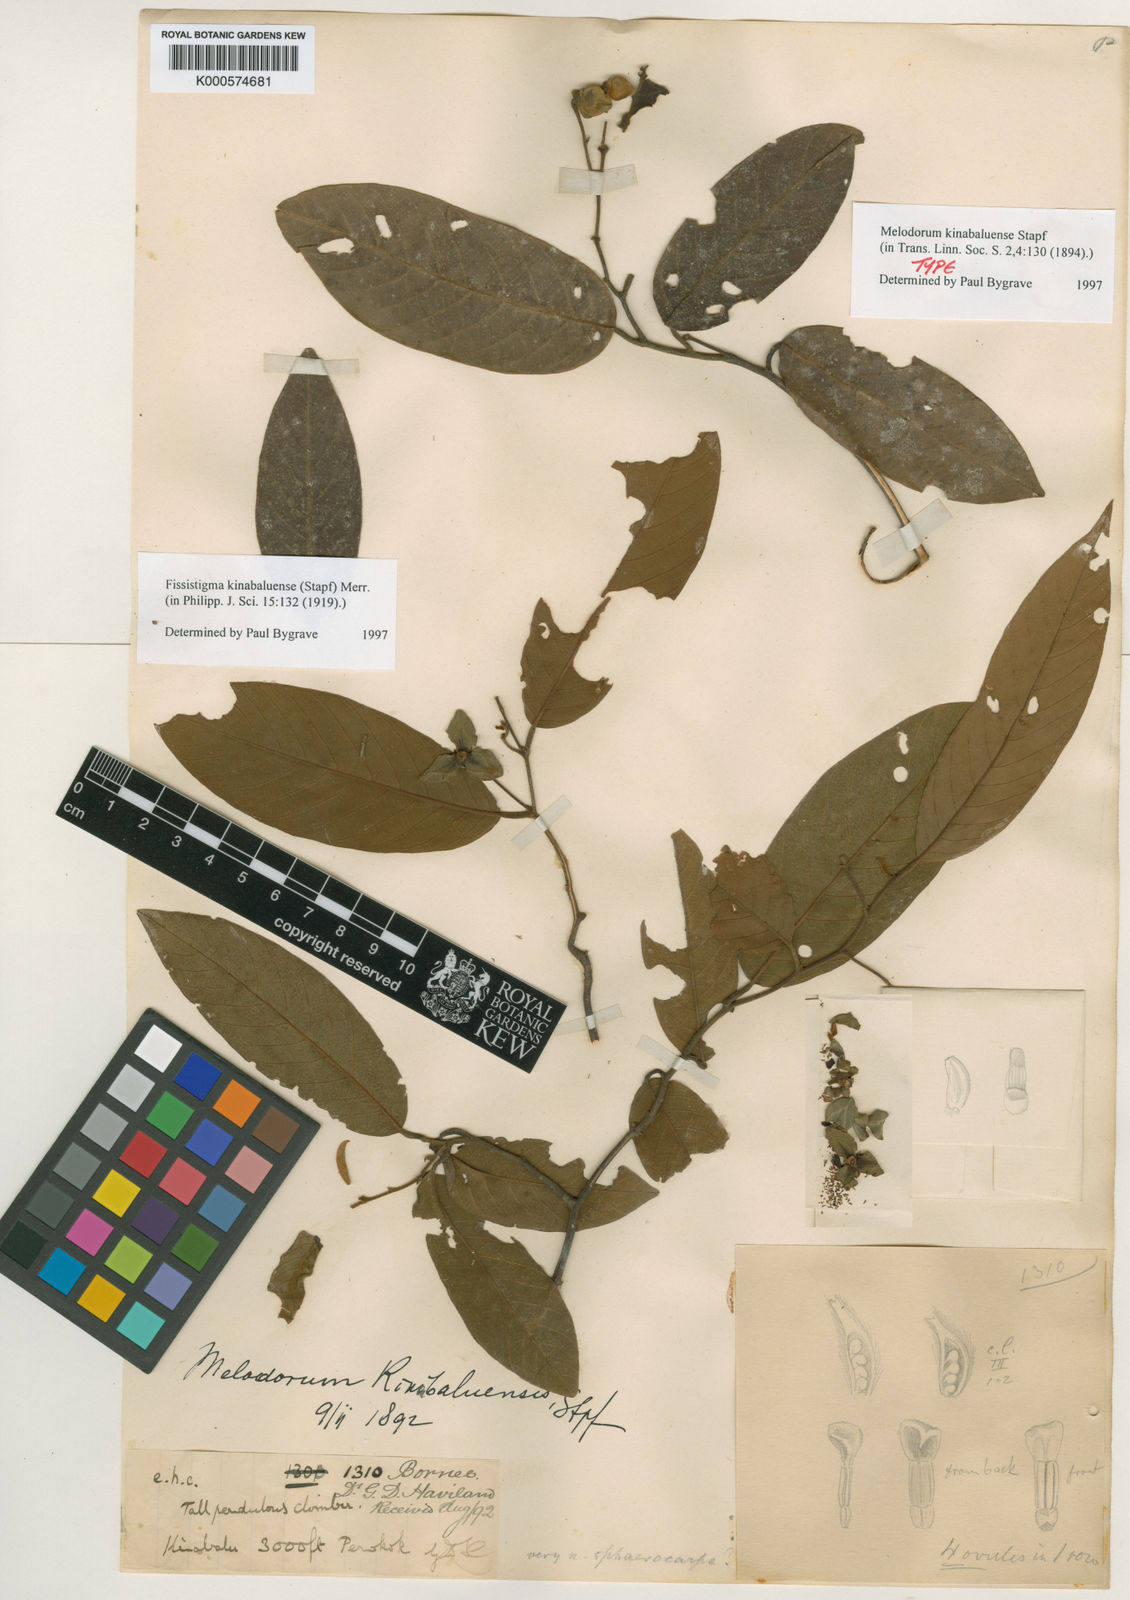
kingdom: Plantae
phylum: Tracheophyta
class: Magnoliopsida
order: Magnoliales
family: Annonaceae
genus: Fissistigma
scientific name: Fissistigma kinabaluense
